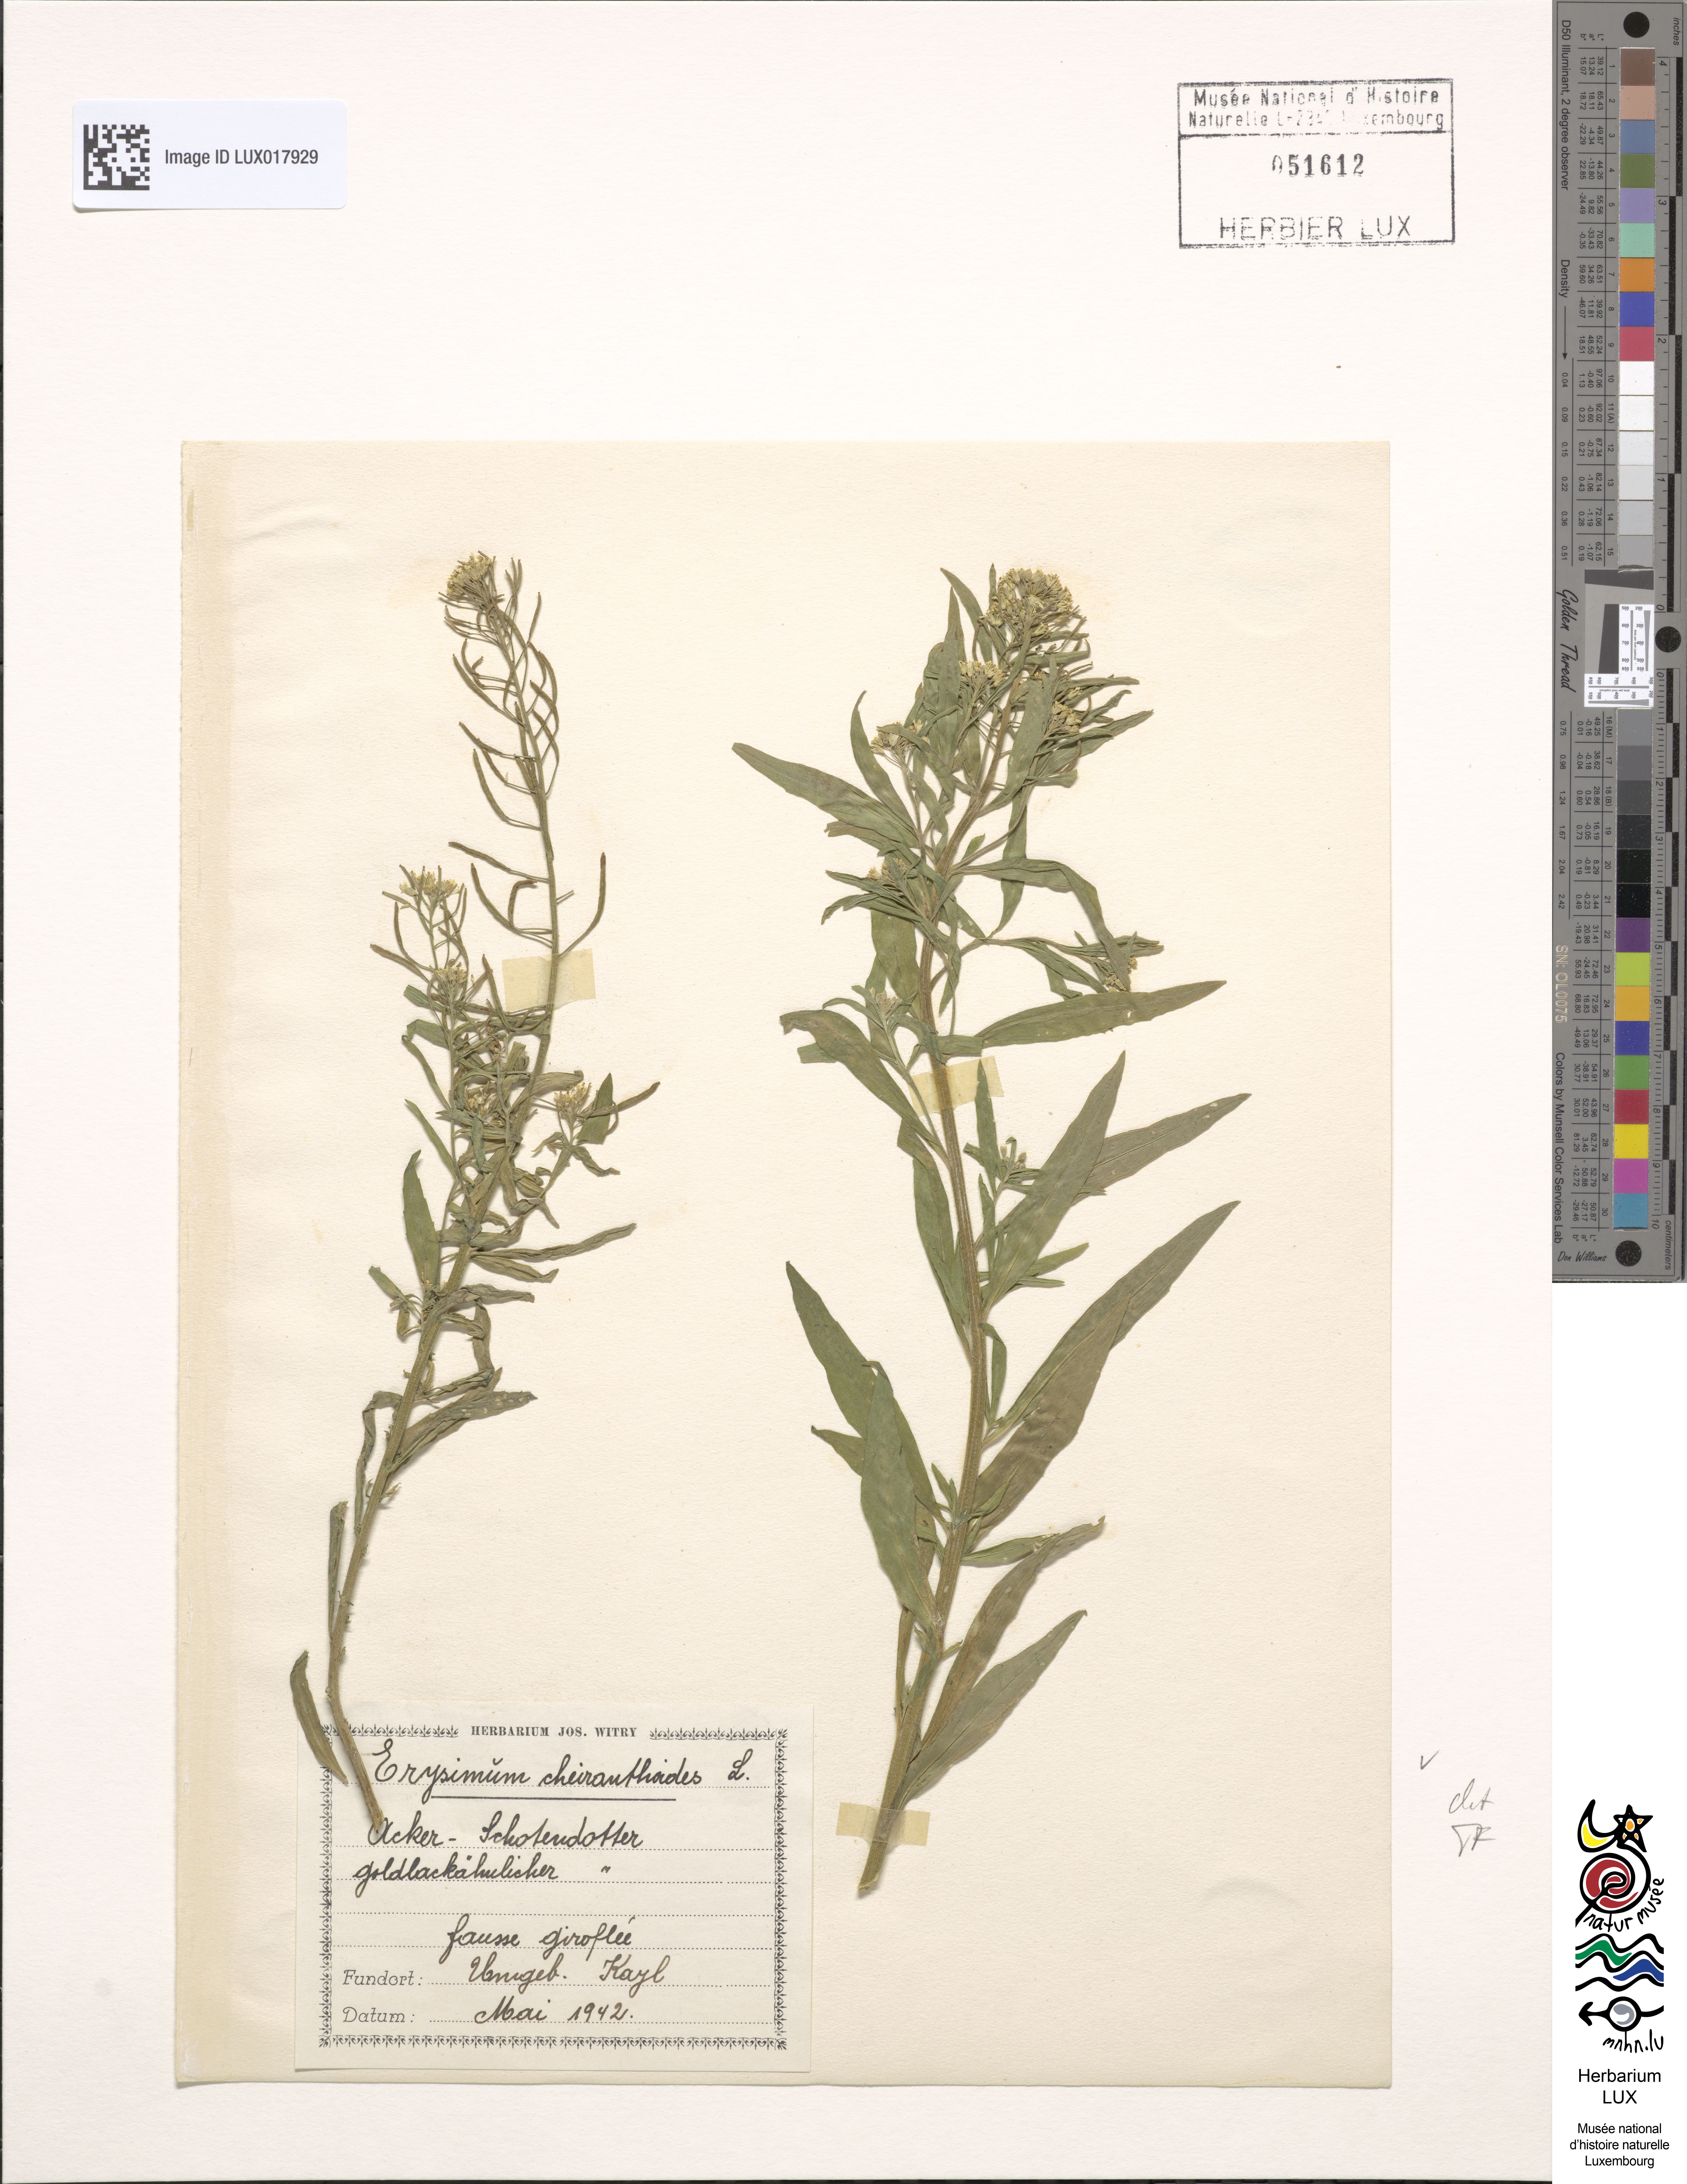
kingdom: Plantae
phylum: Tracheophyta
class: Magnoliopsida
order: Brassicales
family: Brassicaceae
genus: Erysimum
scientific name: Erysimum cheiranthoides
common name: Treacle mustard
